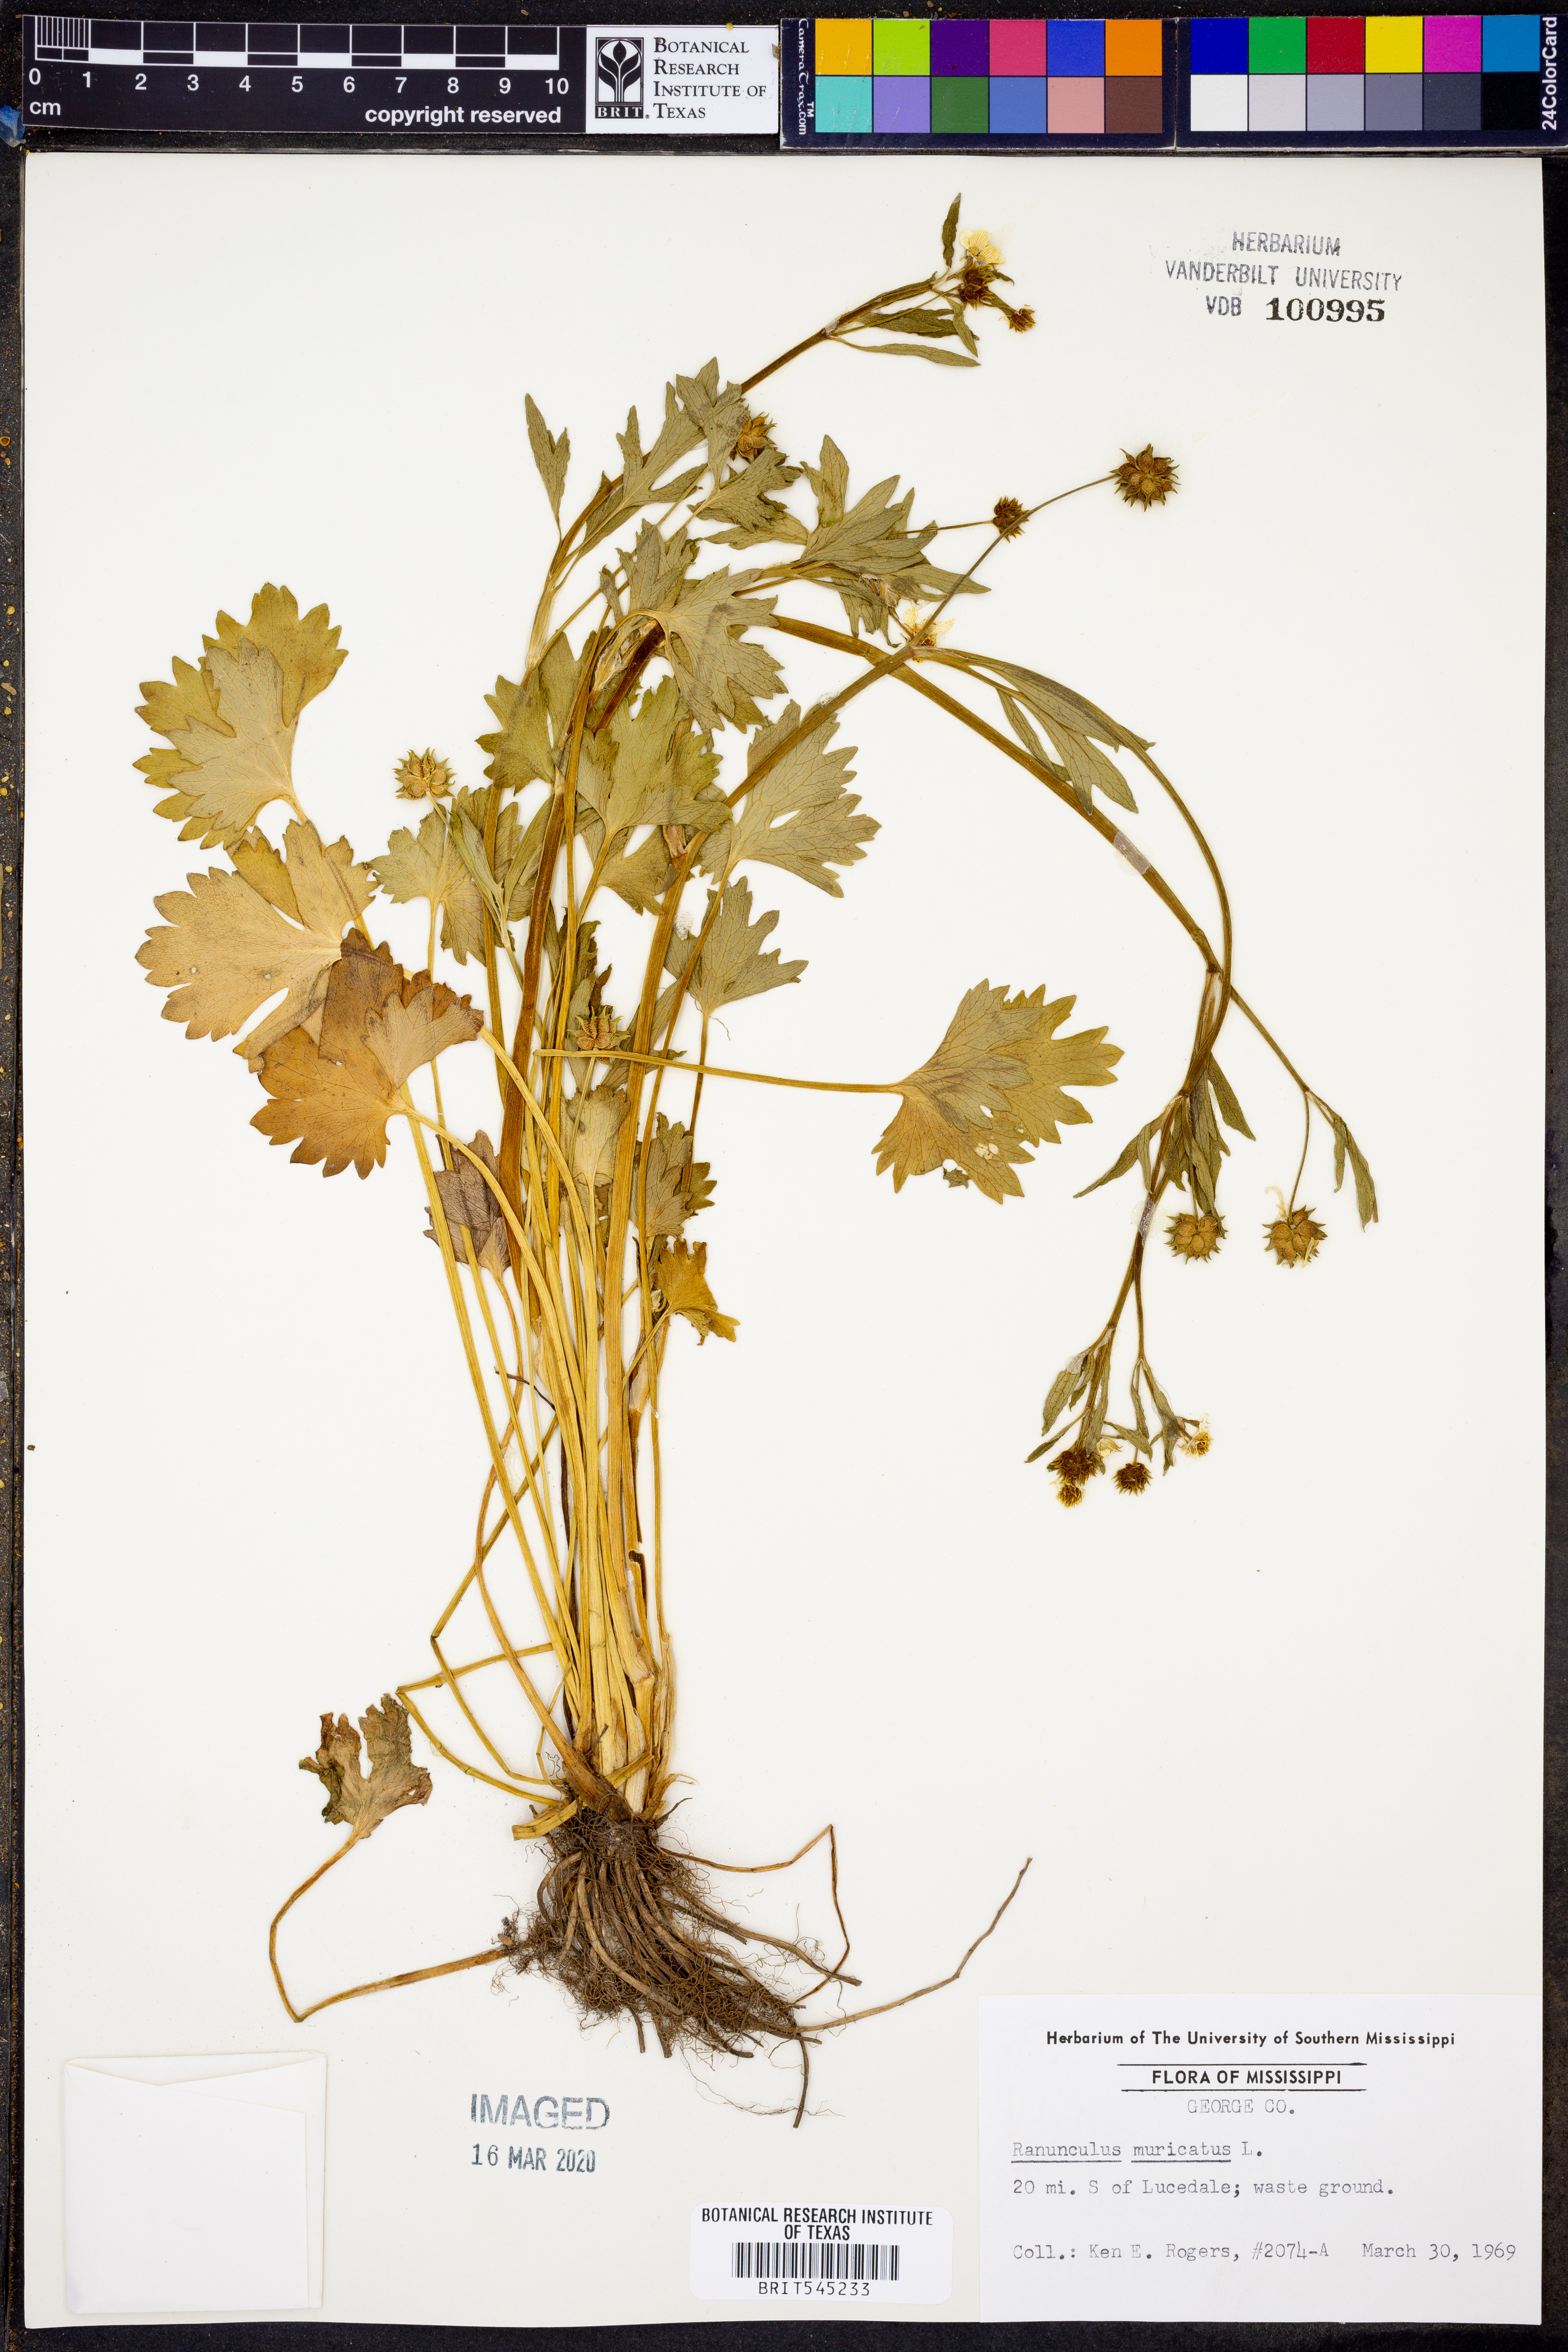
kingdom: Plantae
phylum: Tracheophyta
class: Magnoliopsida
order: Ranunculales
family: Ranunculaceae
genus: Ranunculus
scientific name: Ranunculus muricatus
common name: Rough-fruited buttercup
